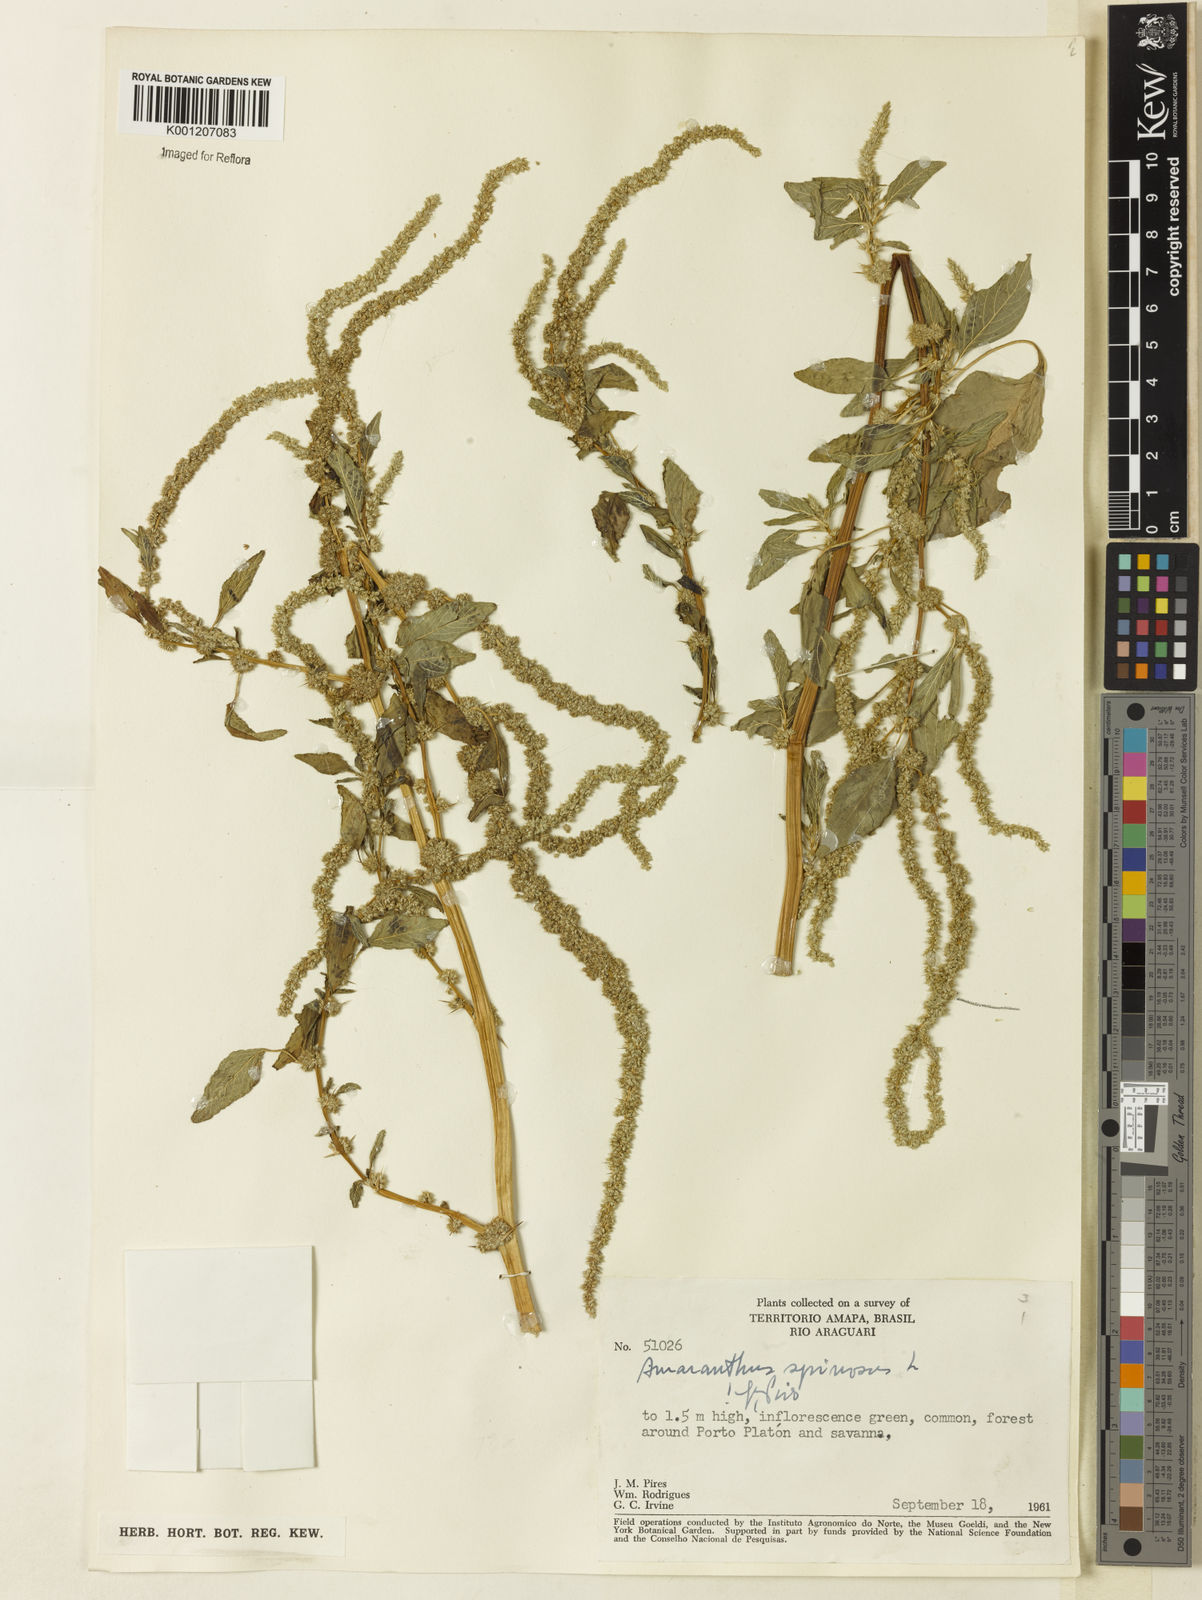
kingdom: Plantae
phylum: Tracheophyta
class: Magnoliopsida
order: Caryophyllales
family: Amaranthaceae
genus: Amaranthus
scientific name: Amaranthus spinosus
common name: Spiny amaranth
